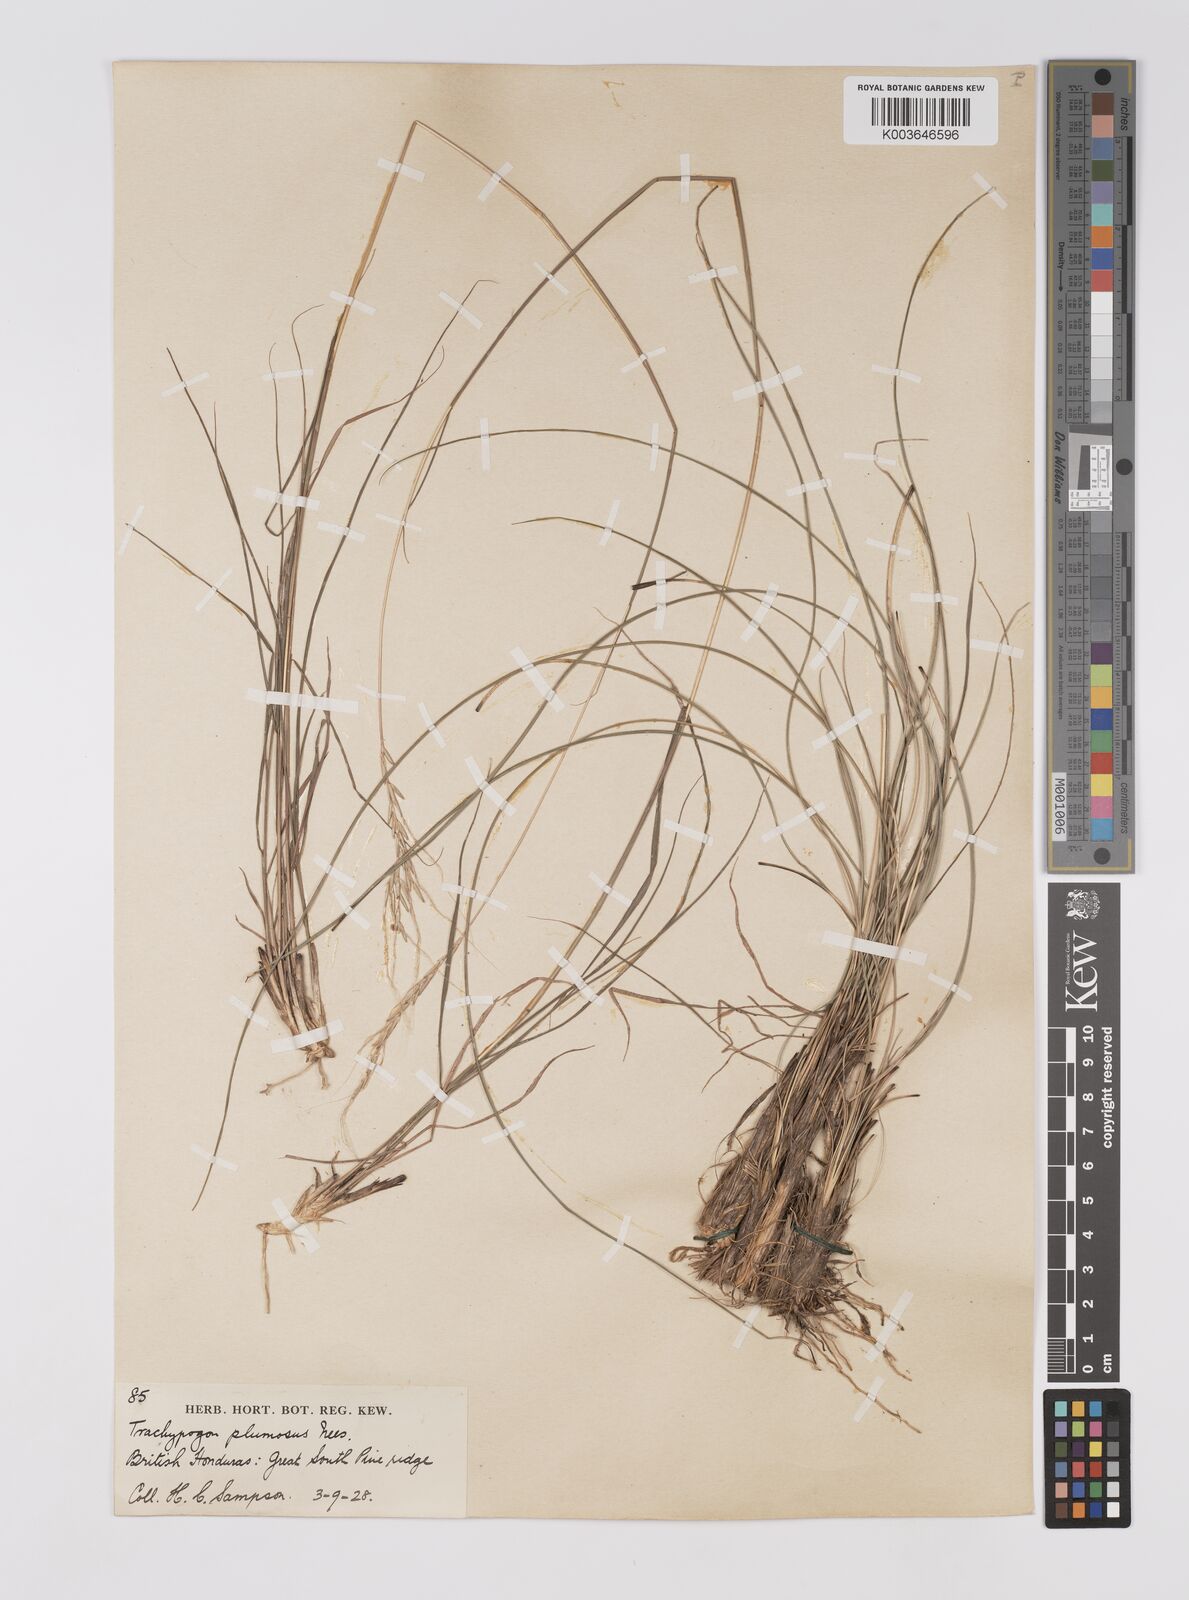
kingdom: Plantae
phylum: Tracheophyta
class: Liliopsida
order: Poales
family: Poaceae
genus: Trachypogon
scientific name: Trachypogon spicatus
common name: Crinkle-awn
